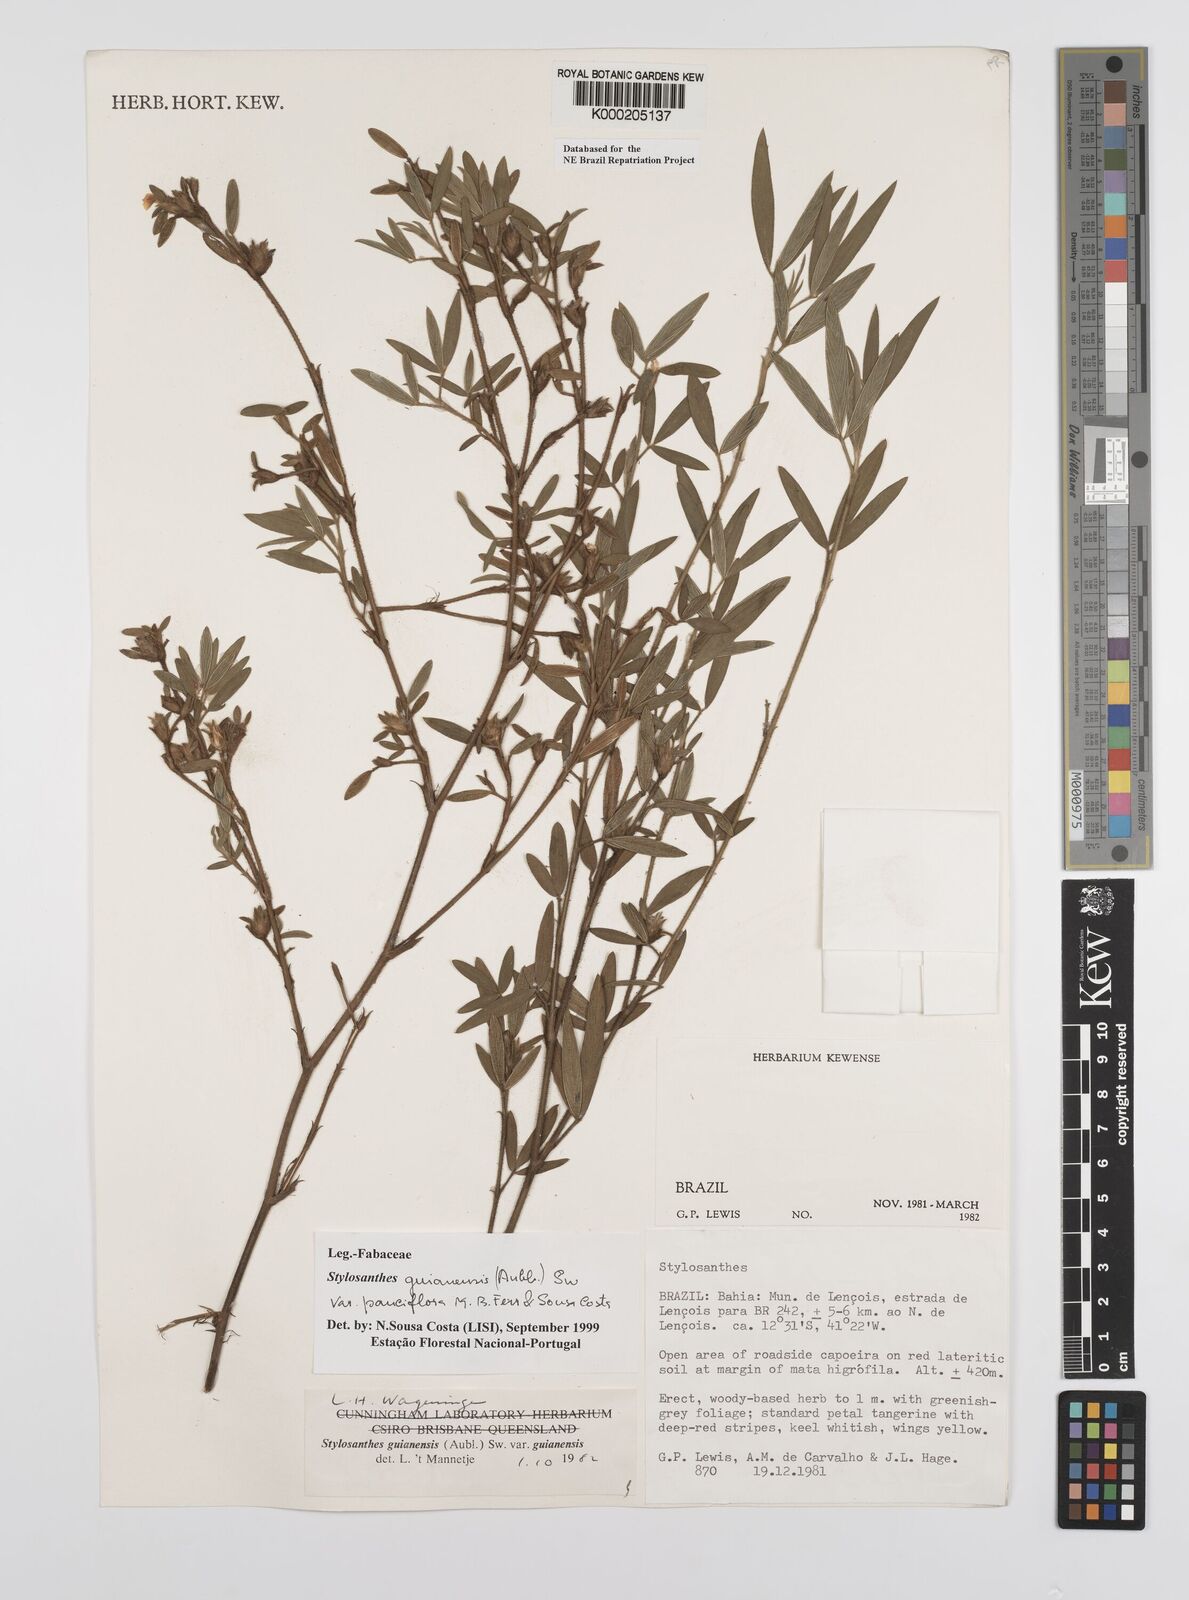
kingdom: Plantae
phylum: Tracheophyta
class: Magnoliopsida
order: Fabales
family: Fabaceae
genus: Stylosanthes
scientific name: Stylosanthes guianensis
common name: Pencil flower
